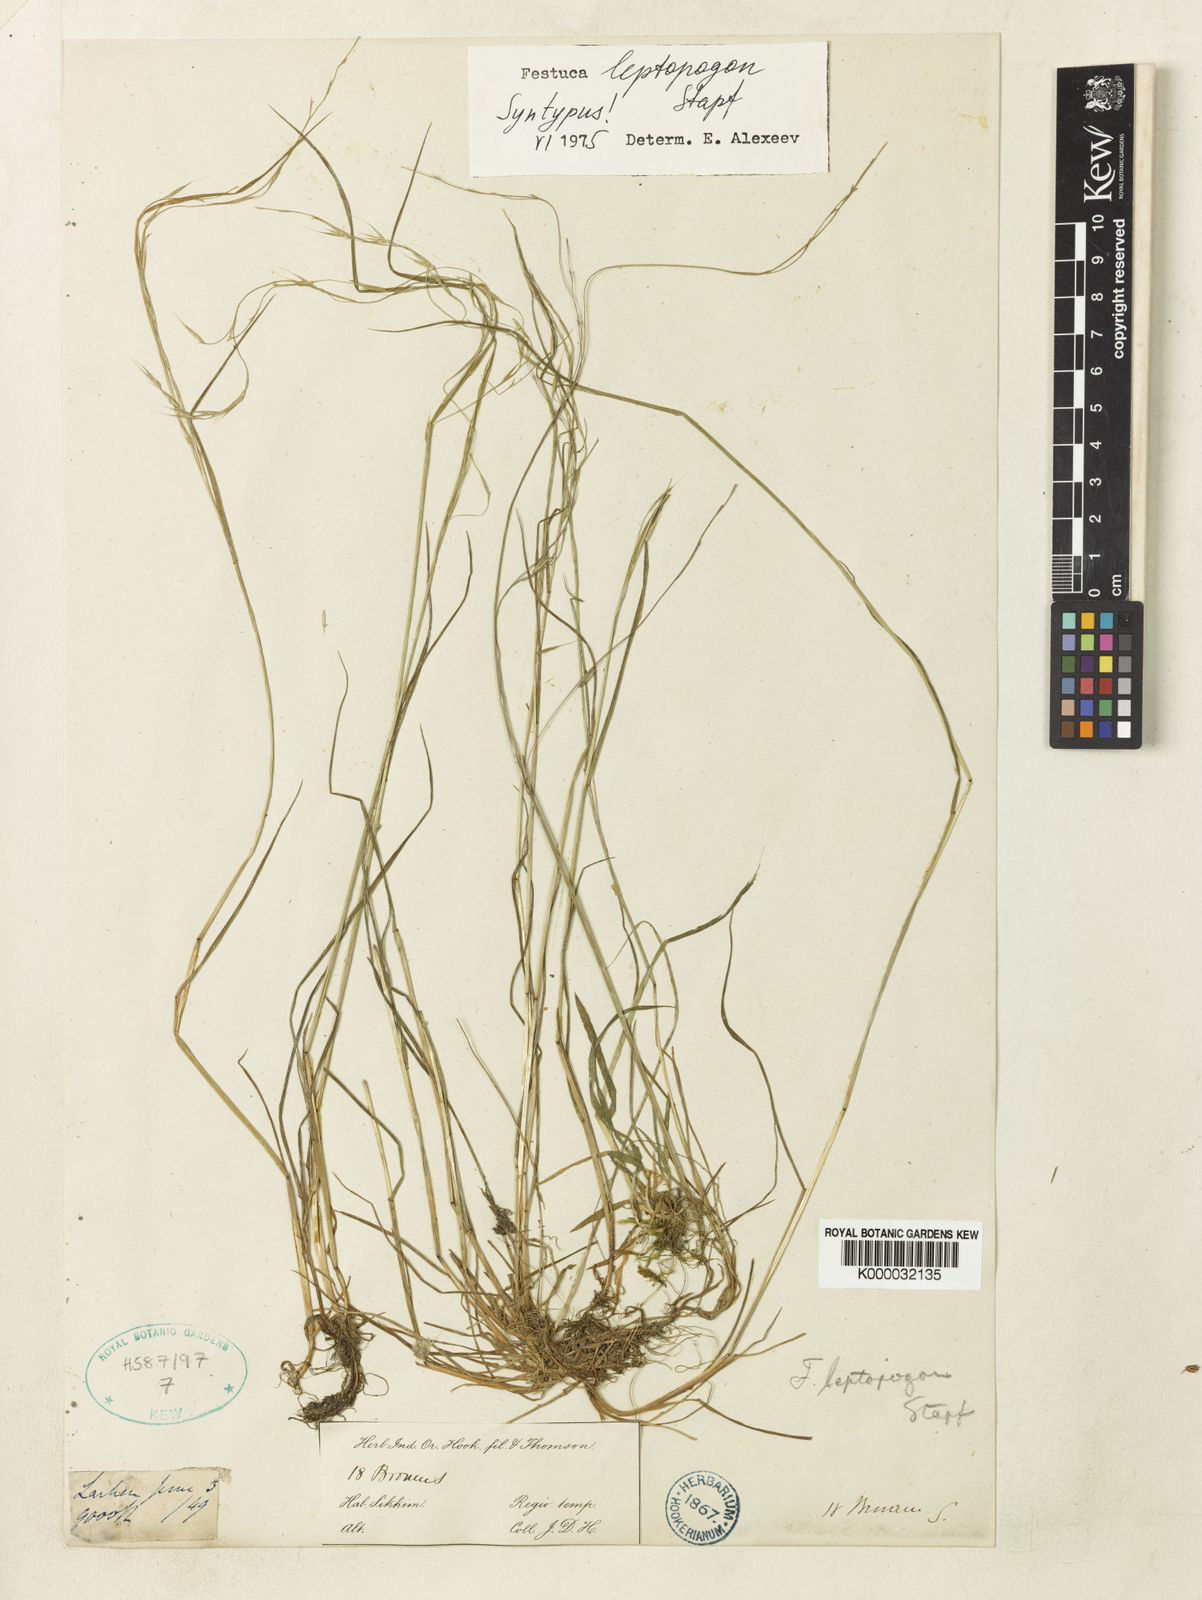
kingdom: Plantae
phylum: Tracheophyta
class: Liliopsida
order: Poales
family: Poaceae
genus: Festuca
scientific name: Festuca leptopogon
